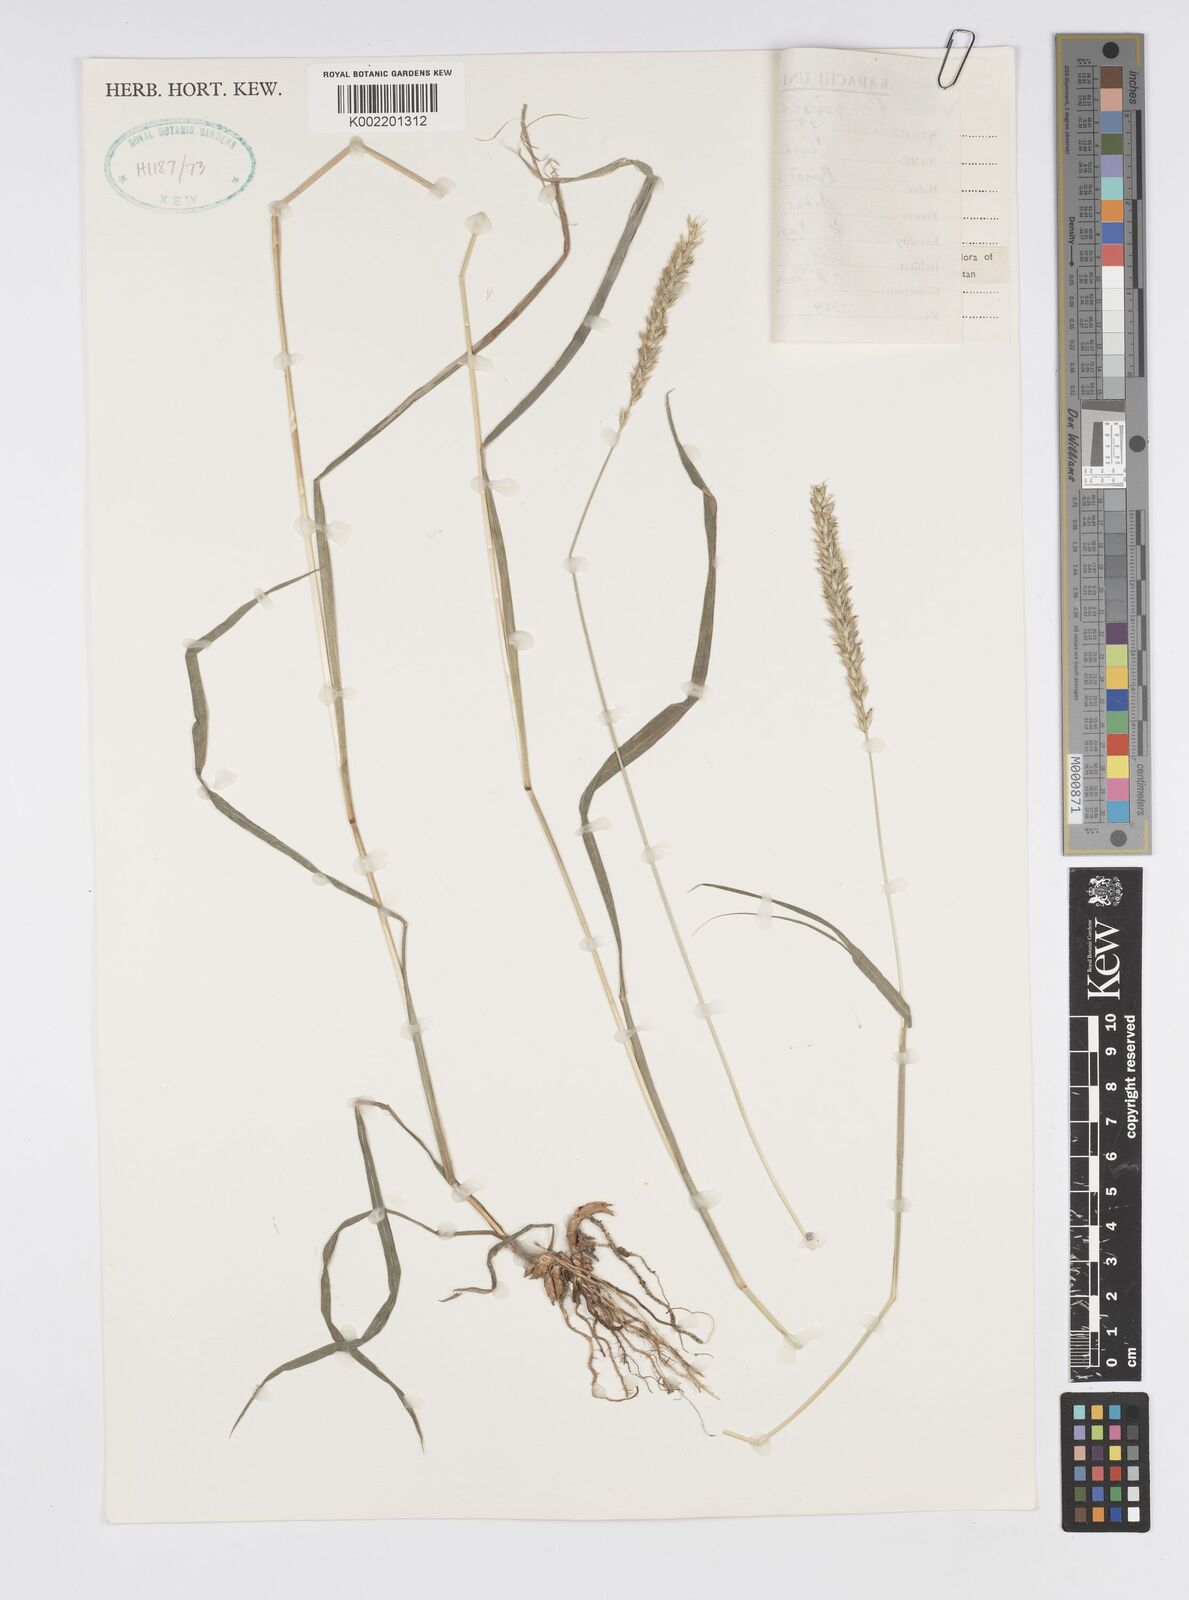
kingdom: Plantae
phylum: Tracheophyta
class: Liliopsida
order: Poales
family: Poaceae
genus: Cenchrus
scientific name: Cenchrus lanatus
